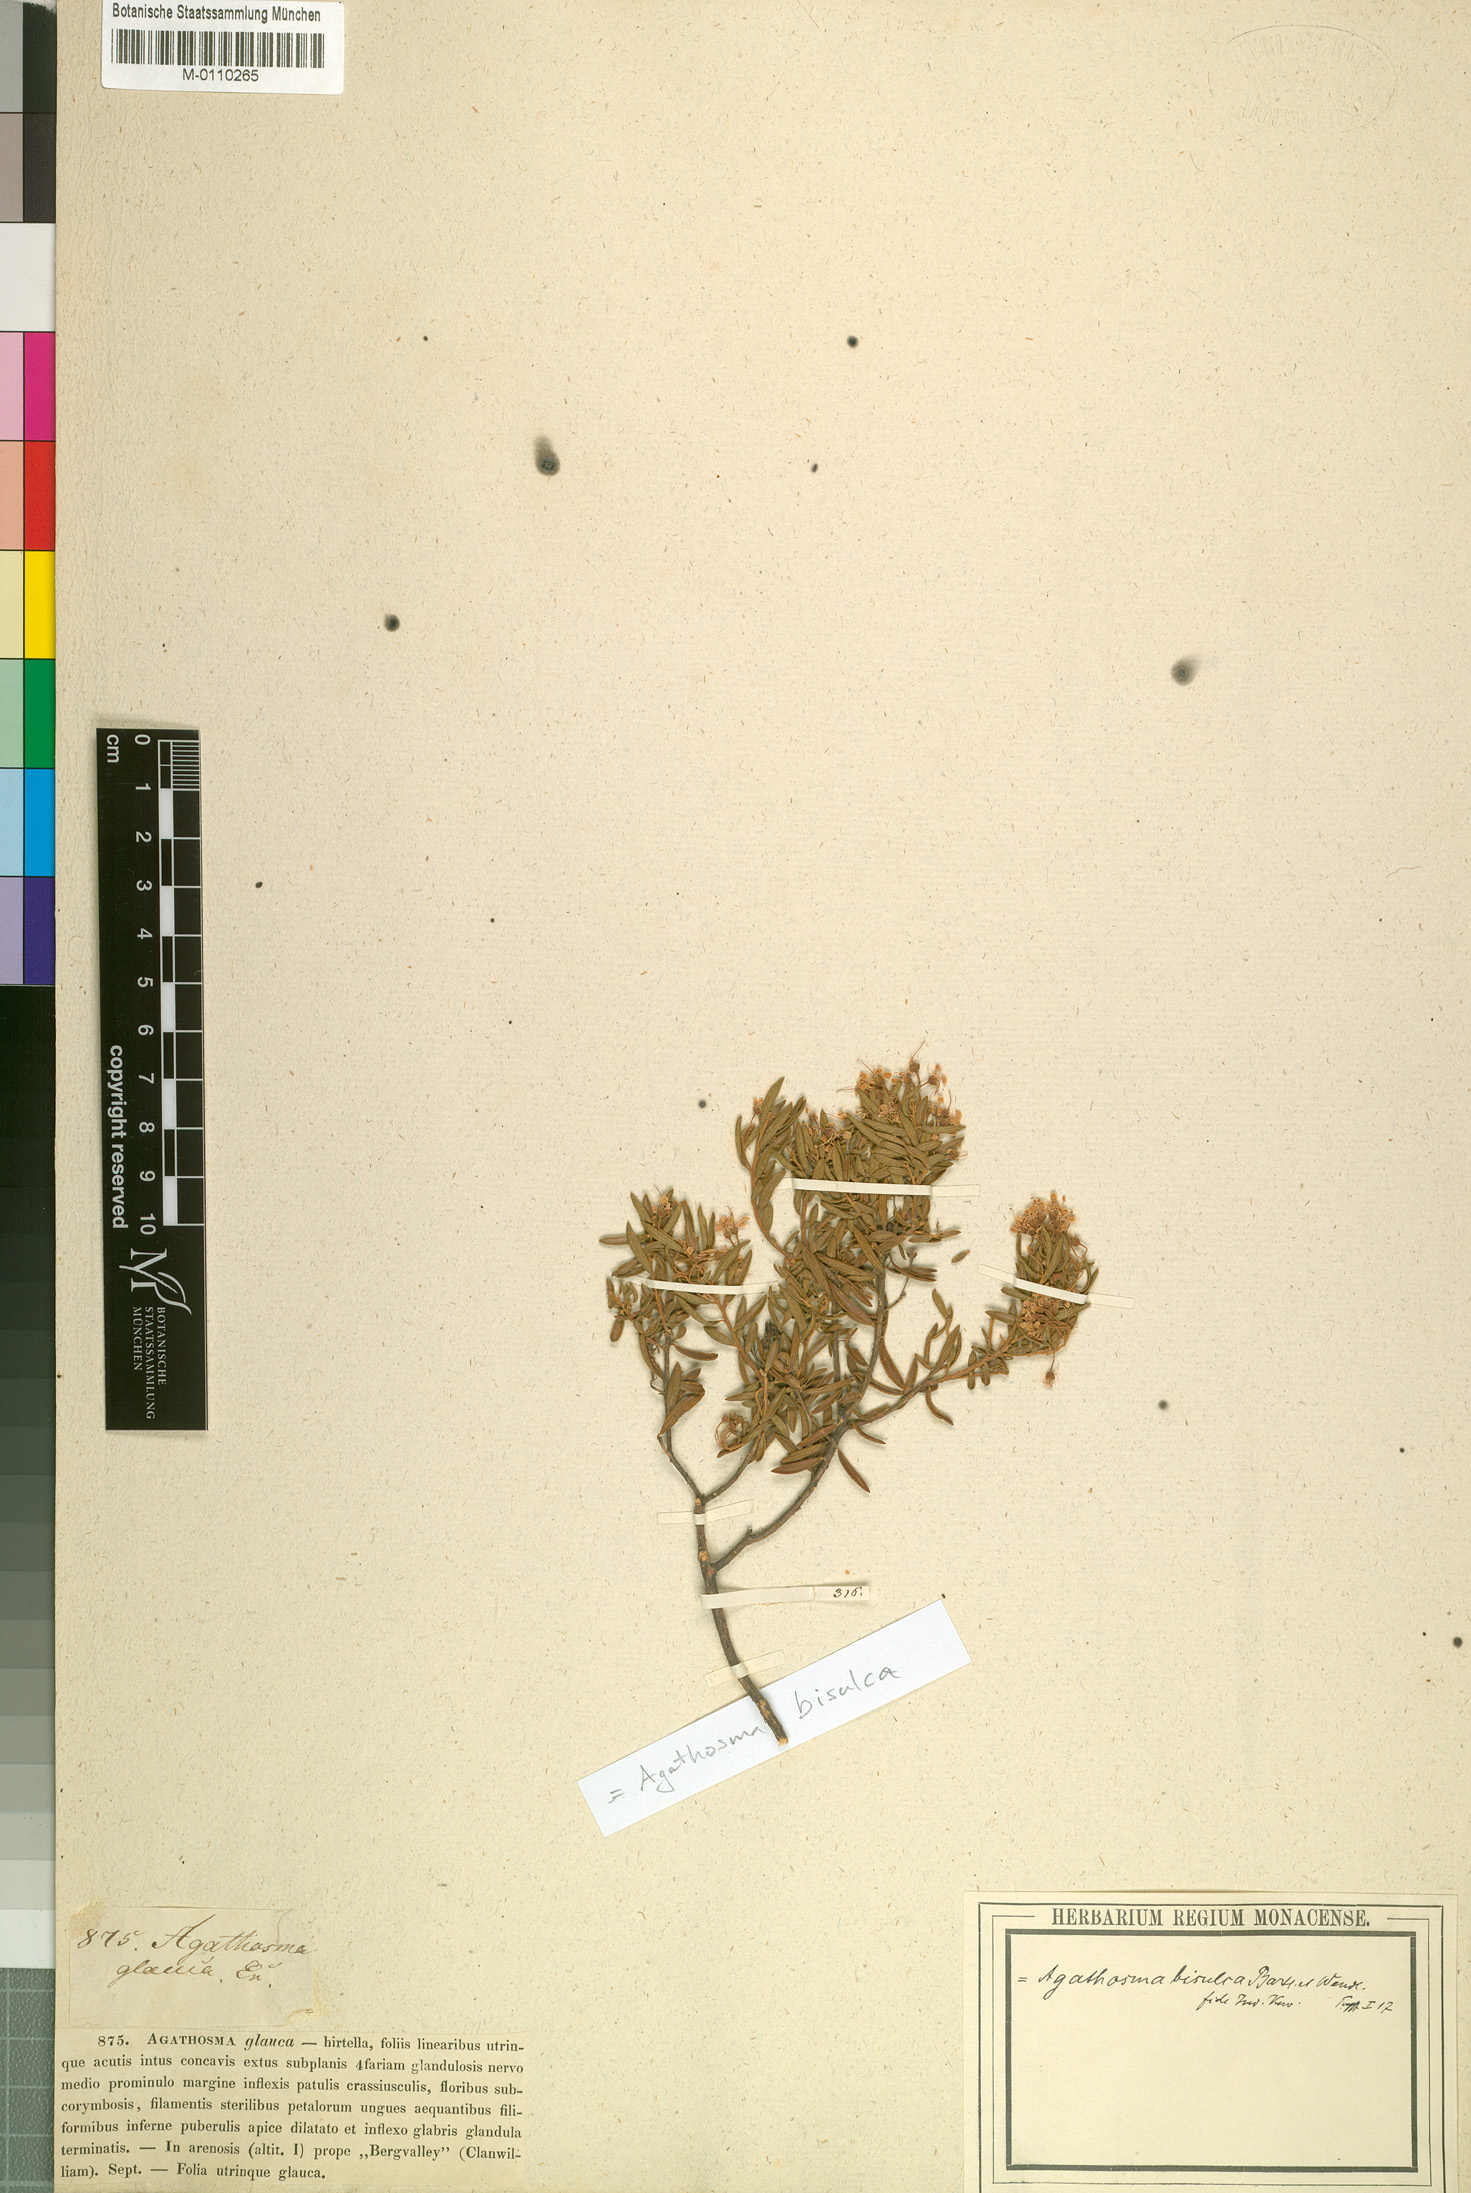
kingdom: Plantae
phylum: Tracheophyta
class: Magnoliopsida
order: Sapindales
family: Rutaceae
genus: Agathosma
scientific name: Agathosma bisulca
